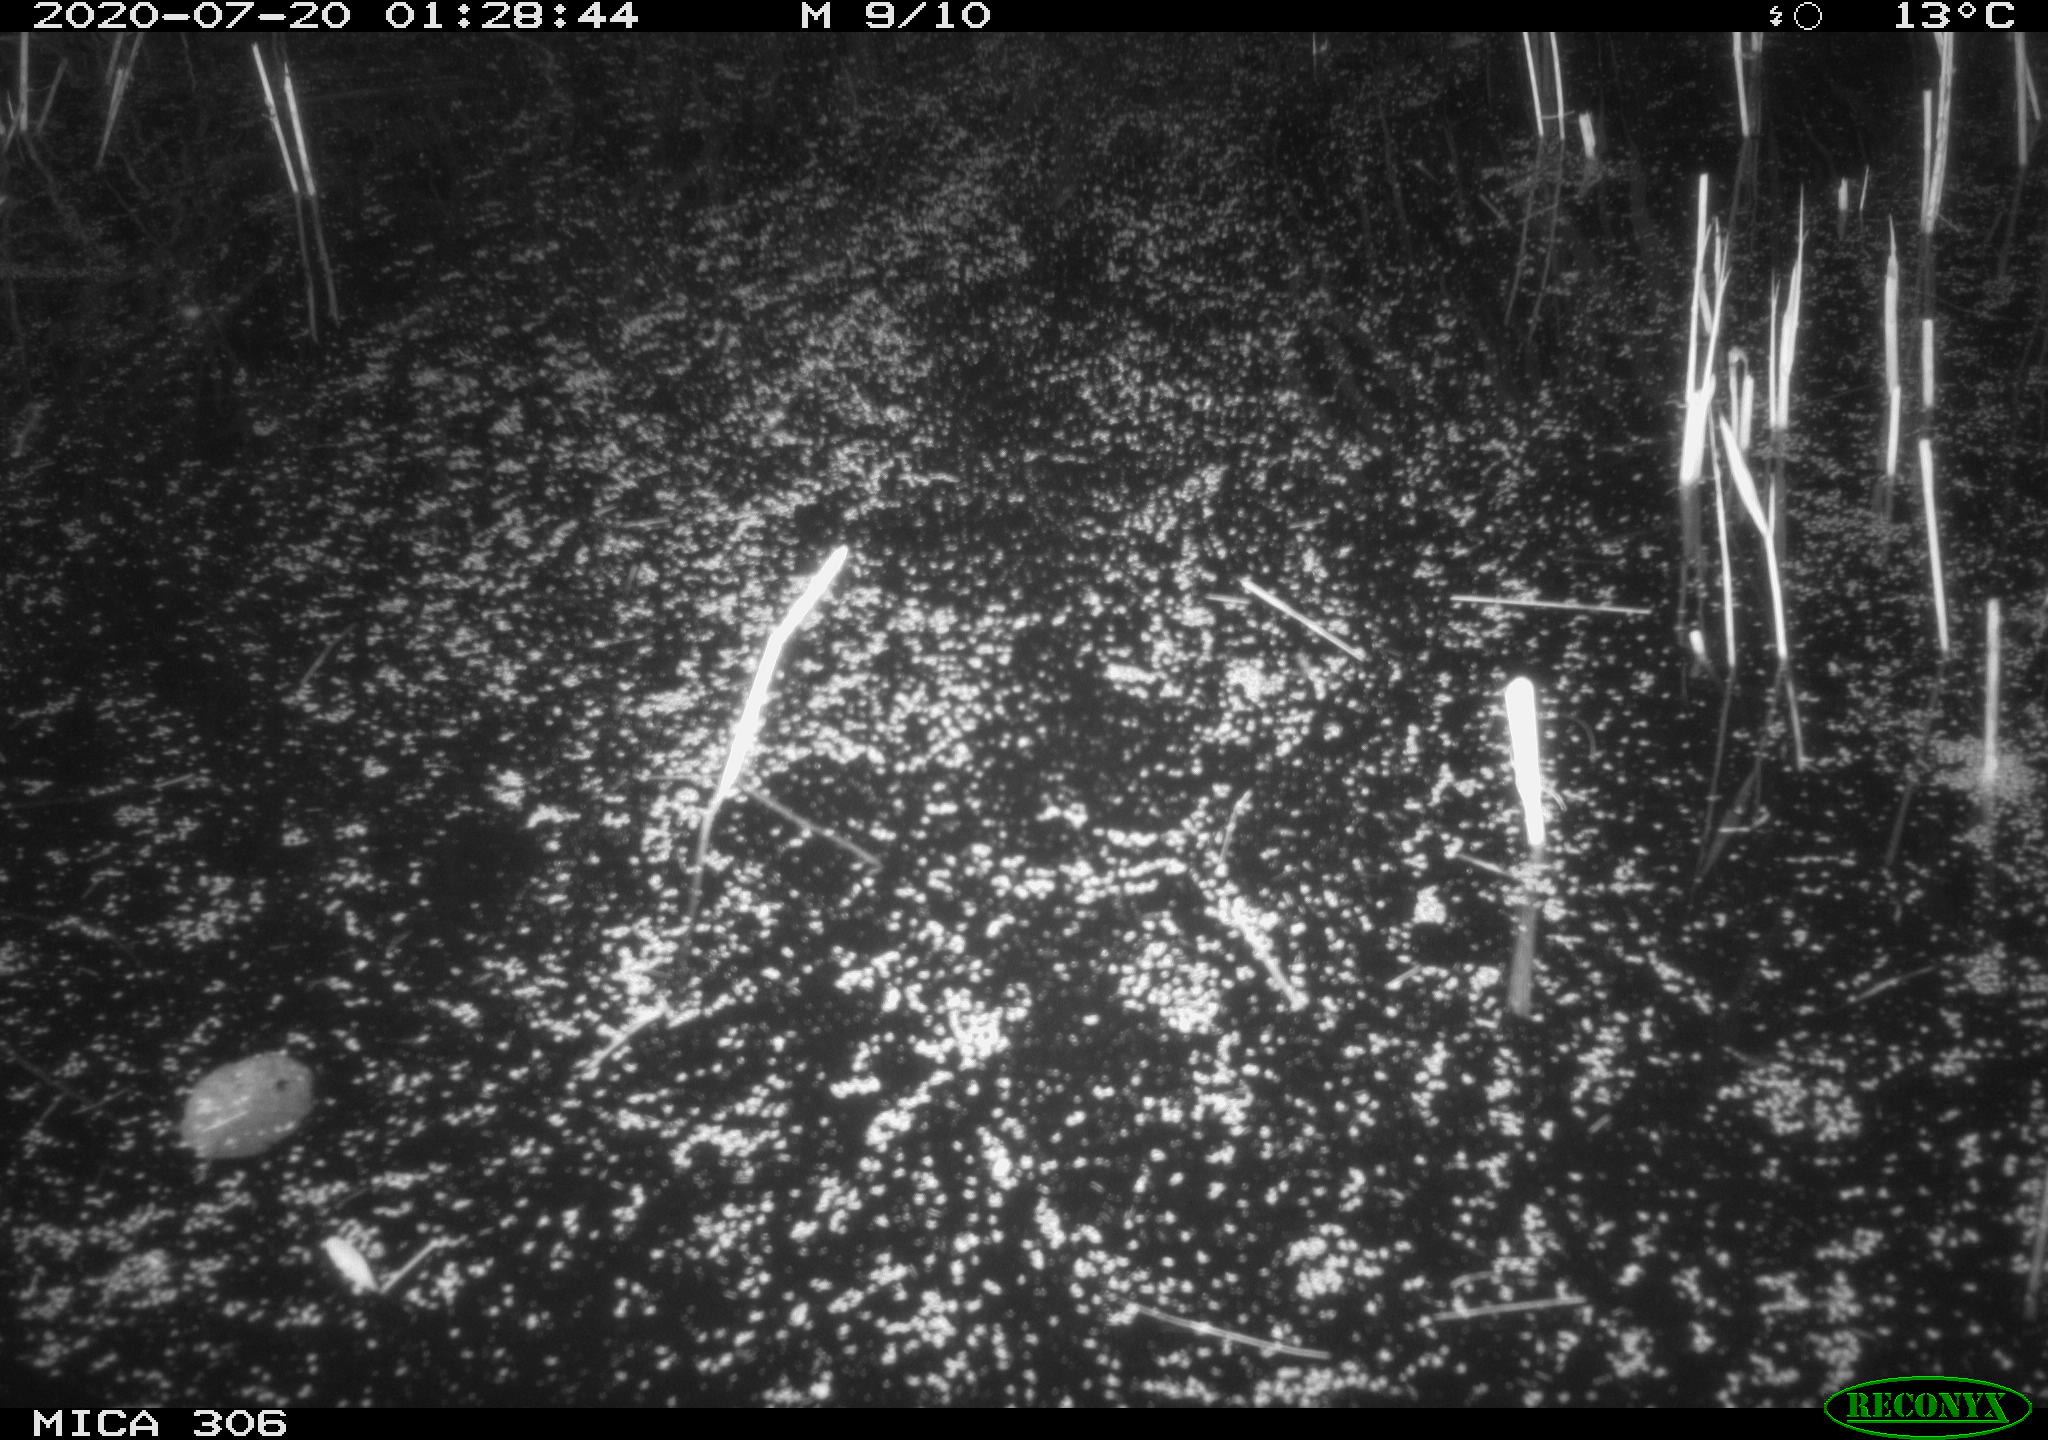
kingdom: Animalia
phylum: Chordata
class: Mammalia
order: Rodentia
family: Cricetidae
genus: Ondatra
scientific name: Ondatra zibethicus
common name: Muskrat
